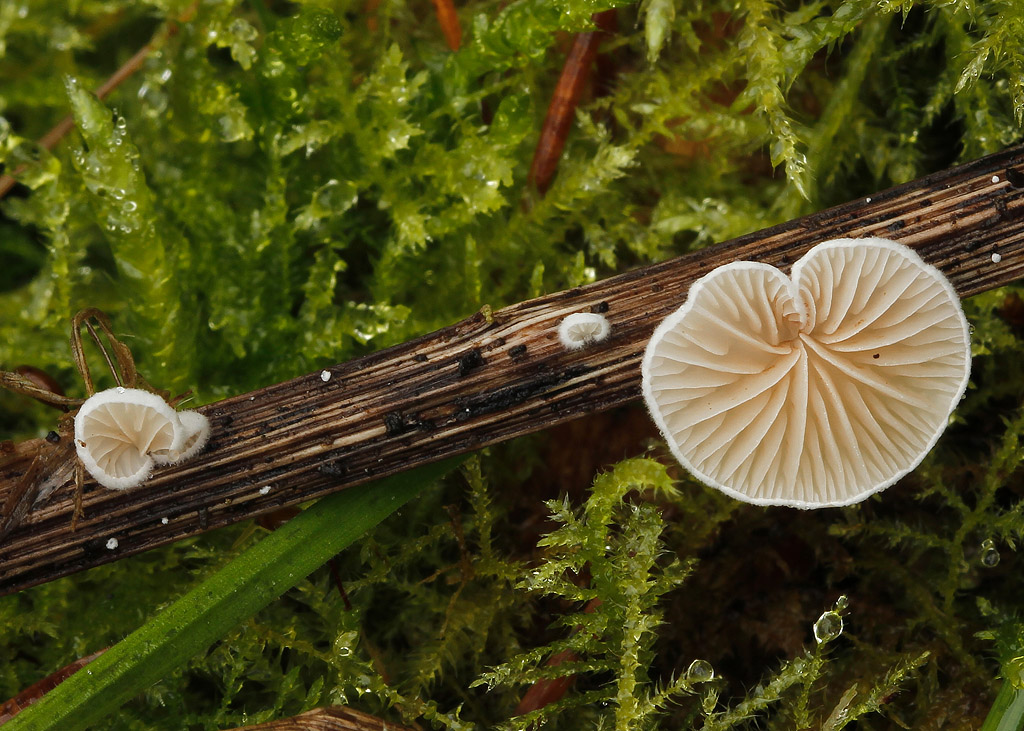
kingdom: Fungi
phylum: Basidiomycota
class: Agaricomycetes
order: Agaricales
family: Crepidotaceae
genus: Crepidotus
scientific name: Crepidotus cesatii
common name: almindelig muslingesvamp
